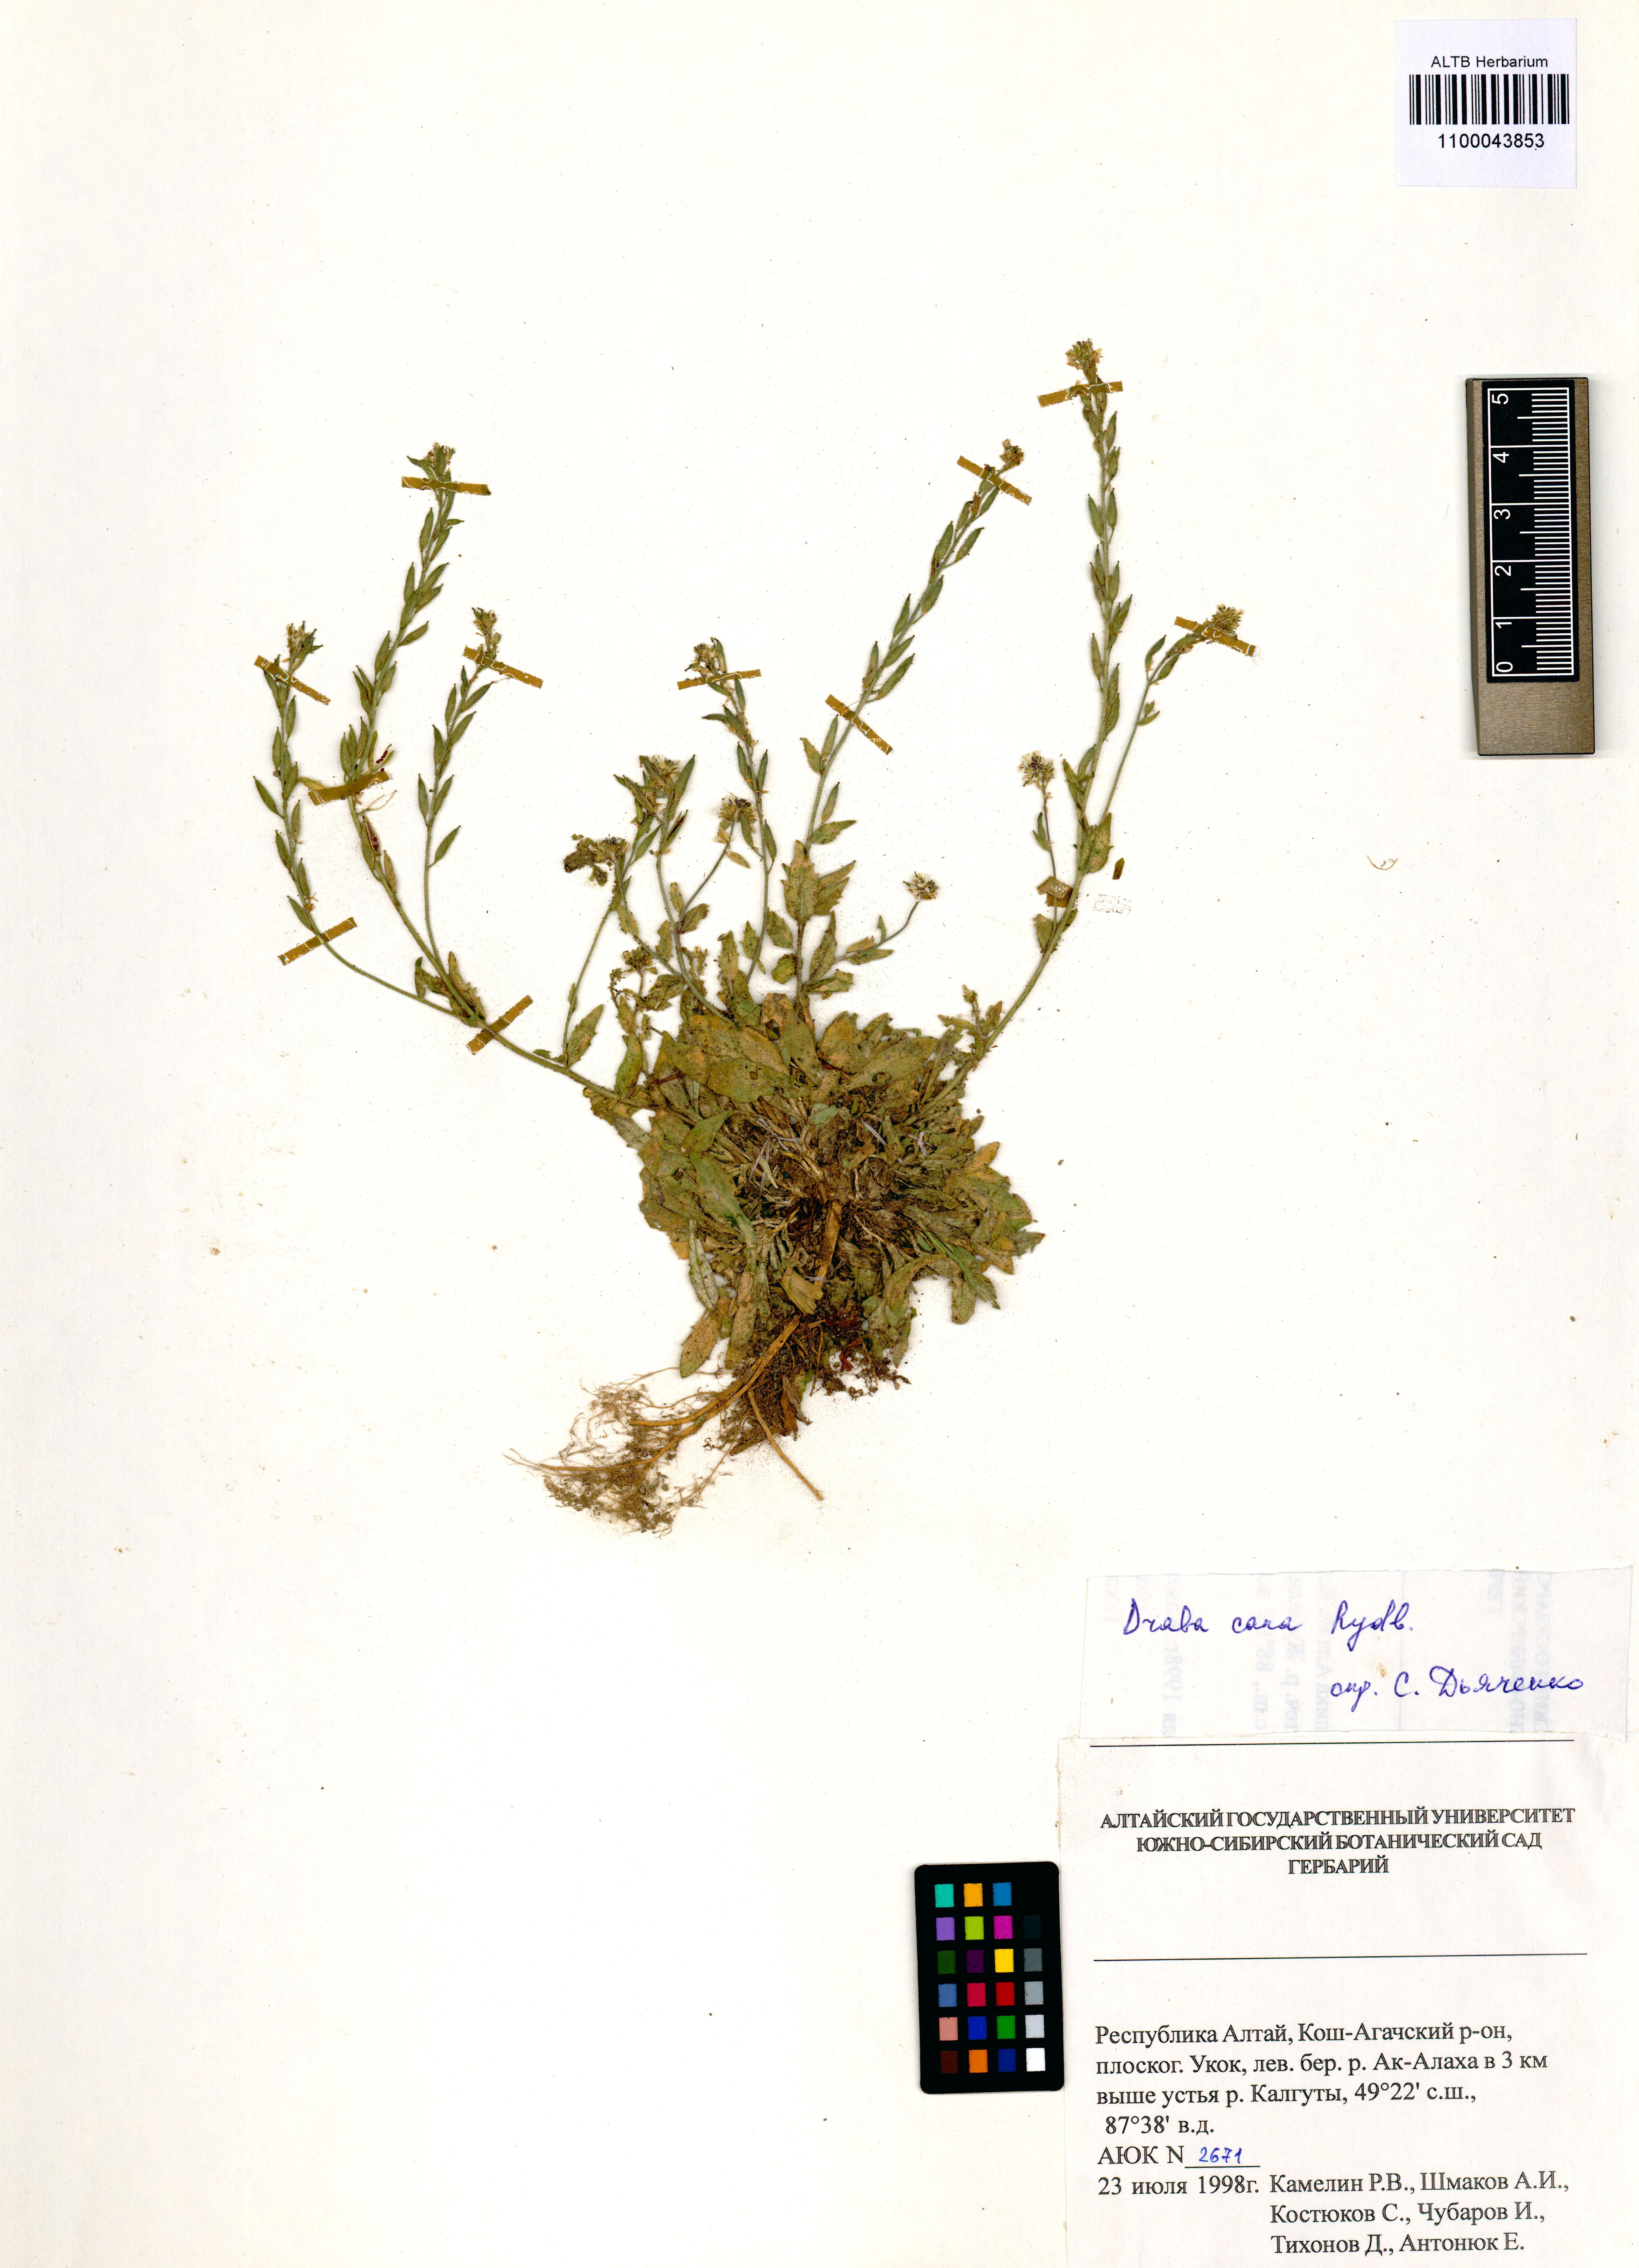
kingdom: Plantae
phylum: Tracheophyta
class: Magnoliopsida
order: Brassicales
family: Brassicaceae
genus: Draba
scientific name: Draba cana
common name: Hoary draba
